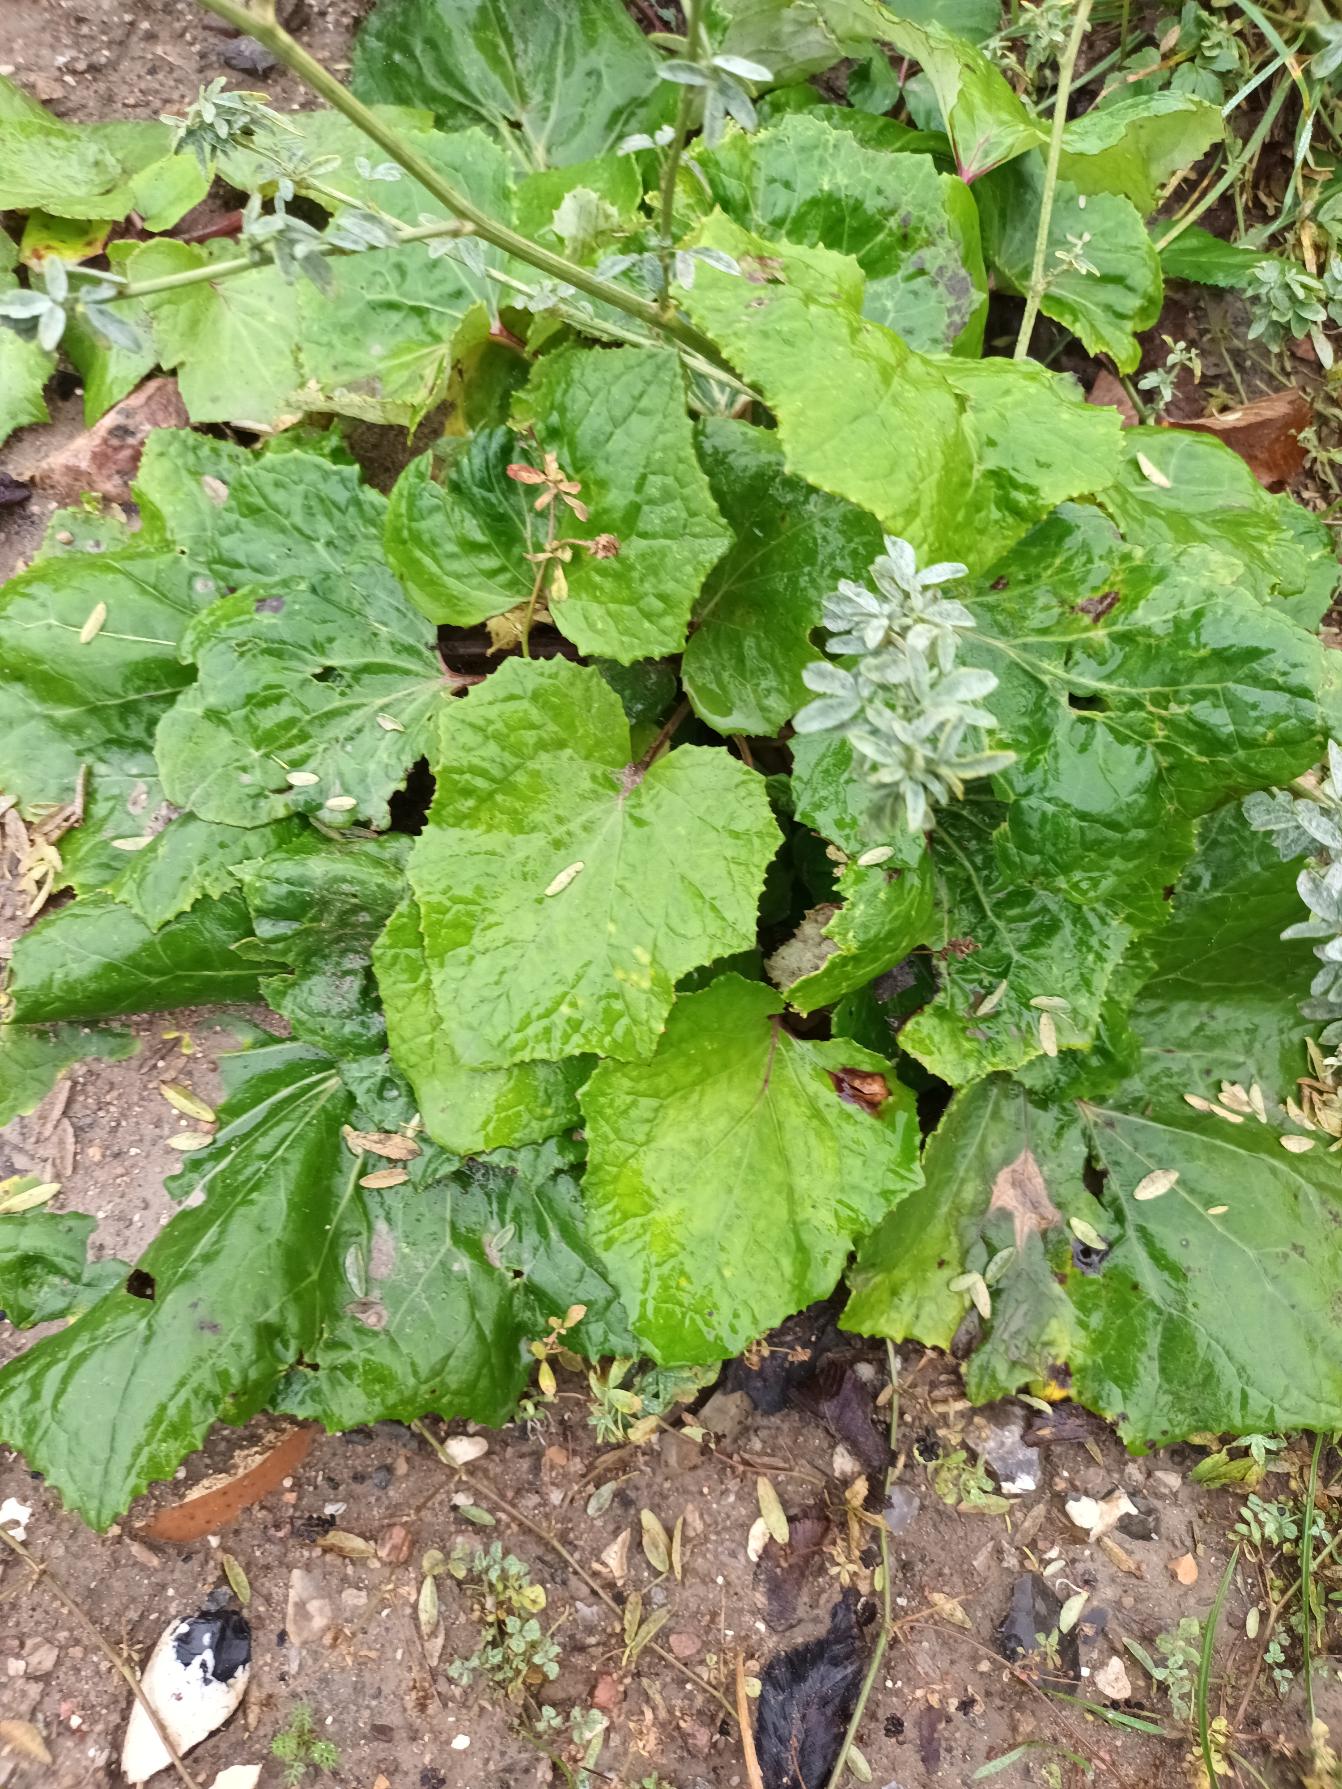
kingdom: Plantae
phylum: Tracheophyta
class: Magnoliopsida
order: Asterales
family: Asteraceae
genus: Tussilago
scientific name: Tussilago farfara
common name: Følfod
